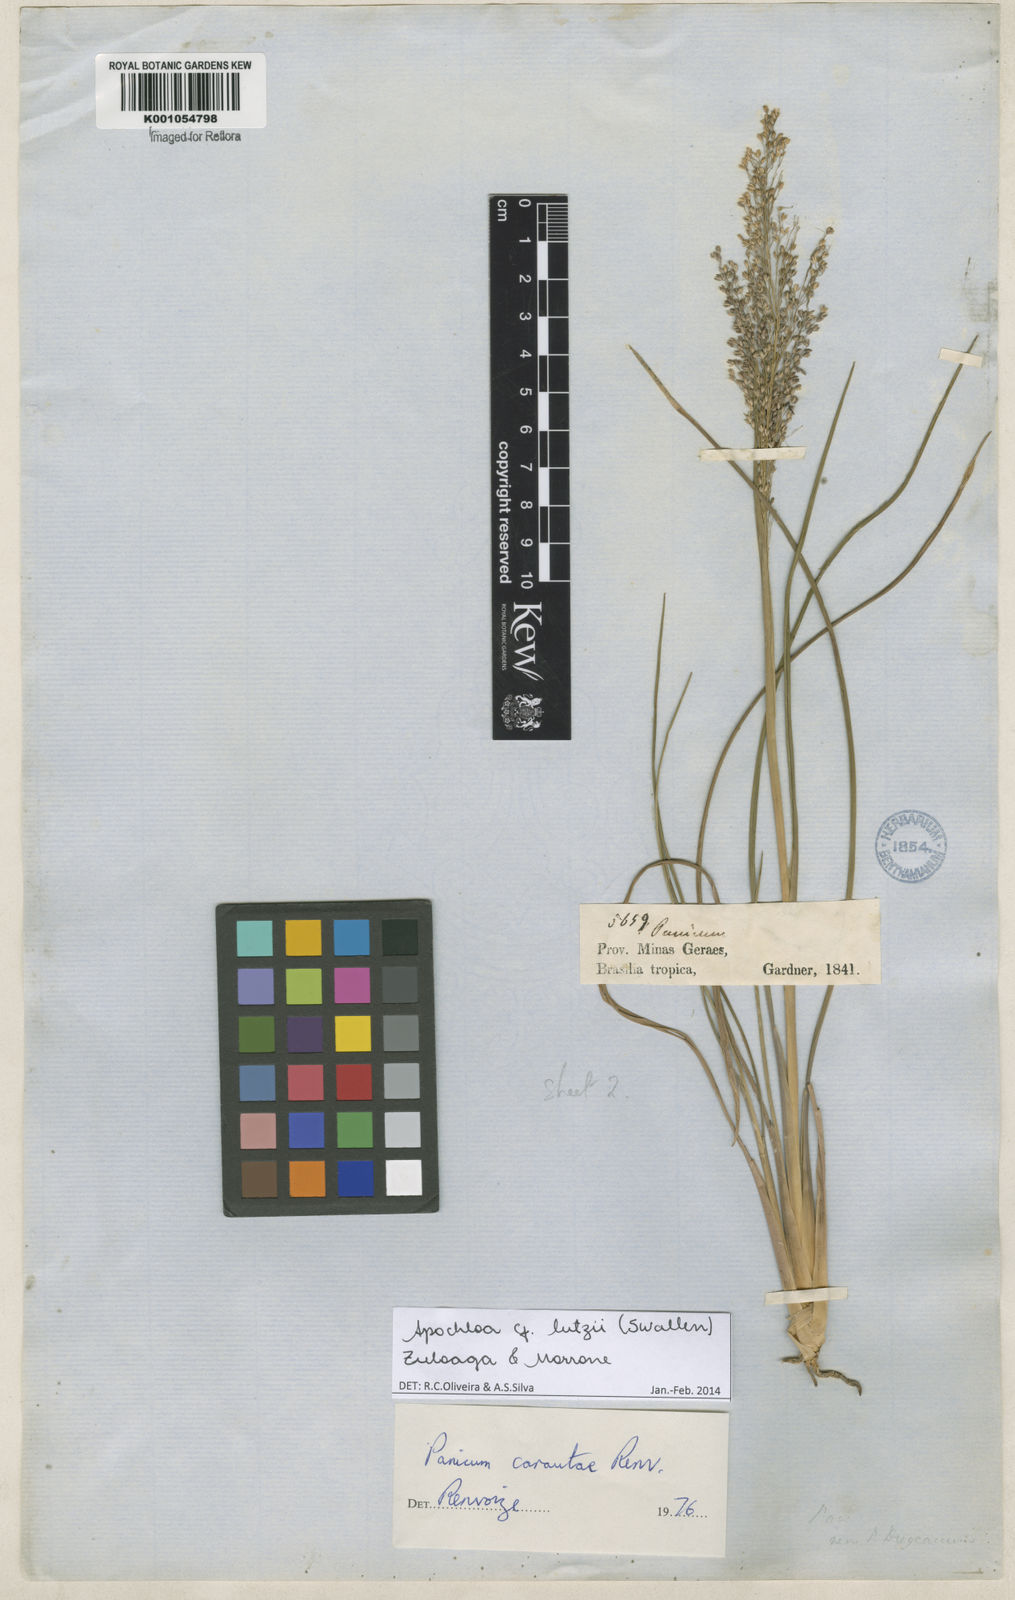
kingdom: Plantae
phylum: Tracheophyta
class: Liliopsida
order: Poales
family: Poaceae
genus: Apochloa
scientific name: Apochloa lutzii
